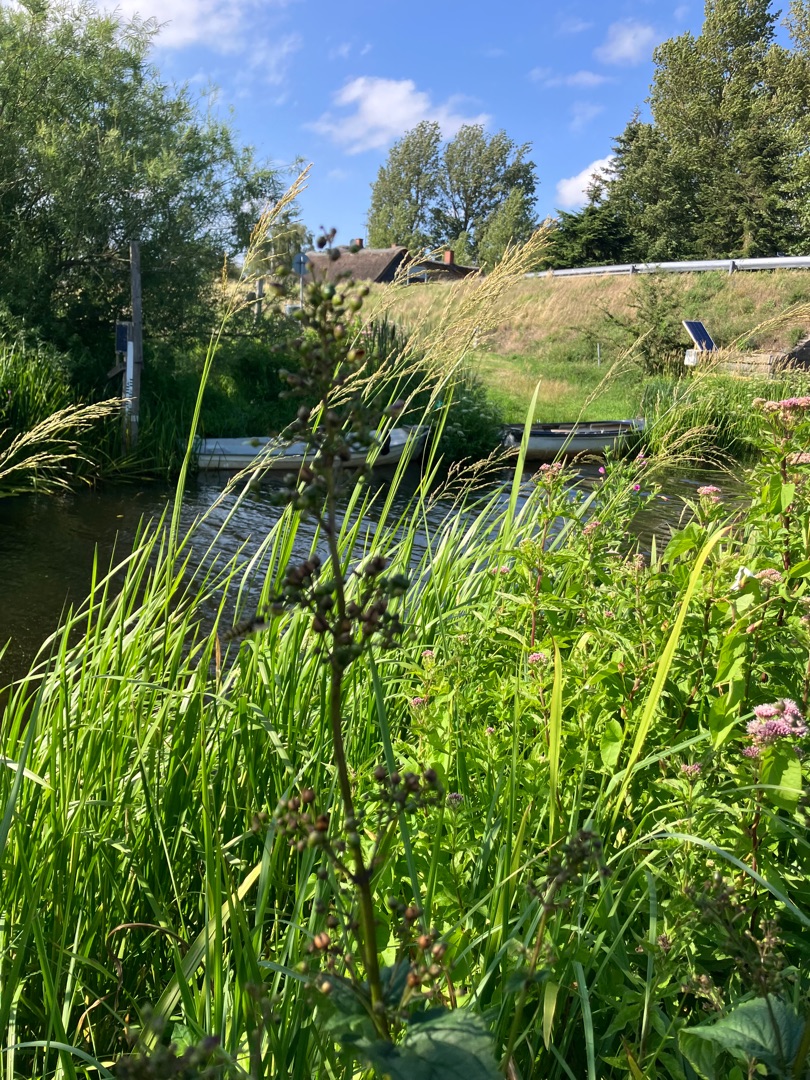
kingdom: Plantae
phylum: Tracheophyta
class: Magnoliopsida
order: Lamiales
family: Scrophulariaceae
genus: Scrophularia
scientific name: Scrophularia nodosa
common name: Knoldet brunrod
